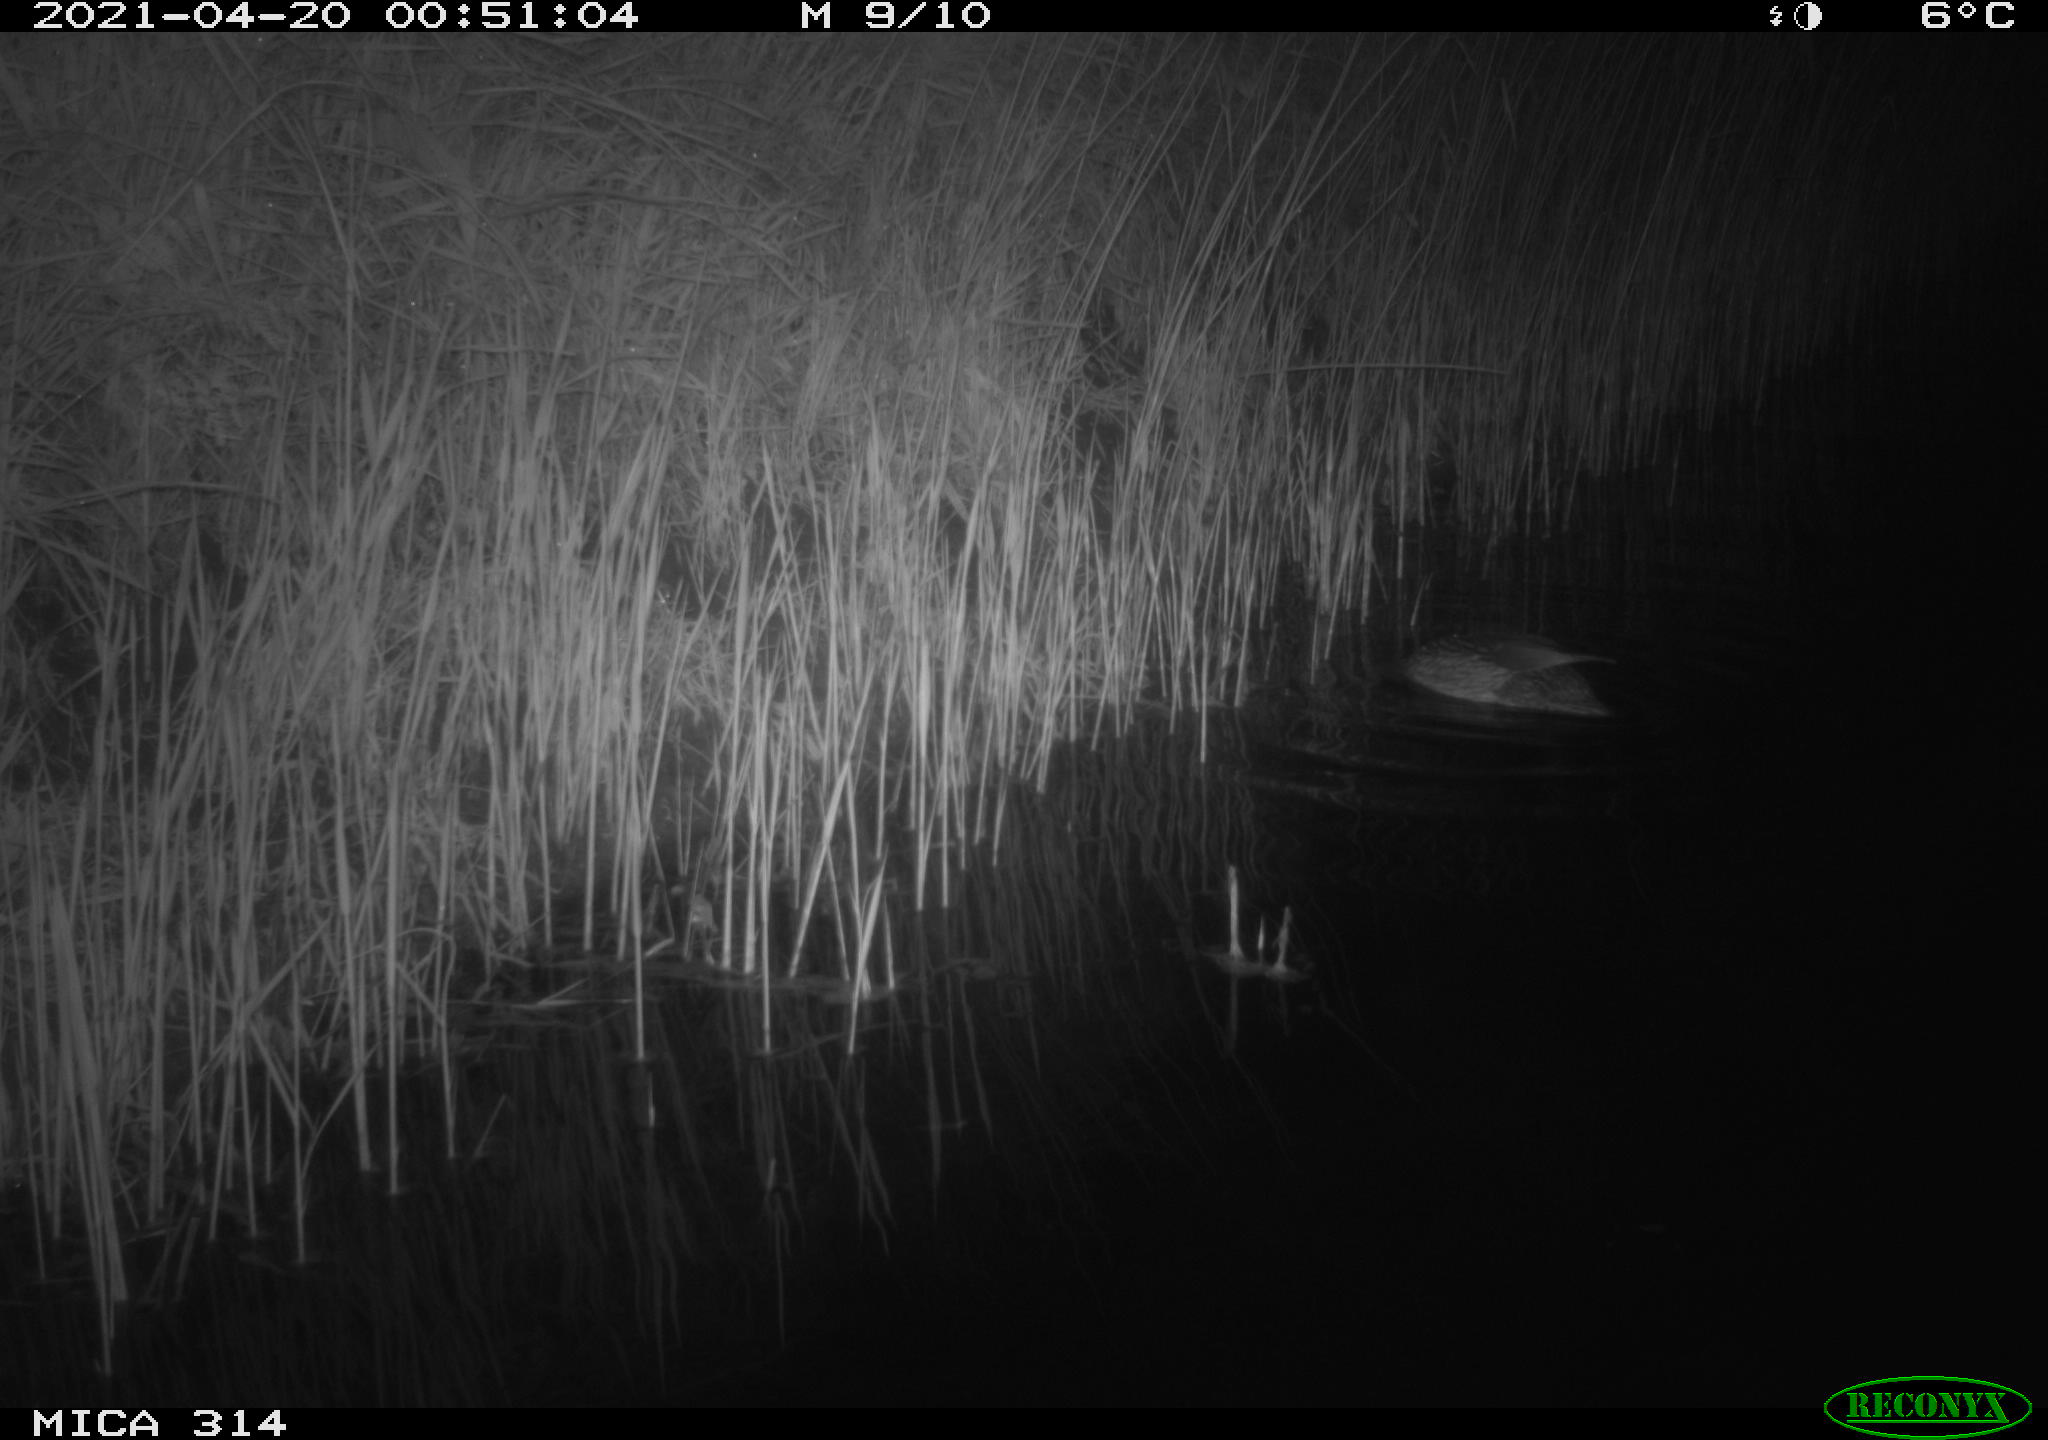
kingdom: Animalia
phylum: Chordata
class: Aves
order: Anseriformes
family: Anatidae
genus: Anas
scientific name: Anas platyrhynchos
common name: Mallard
